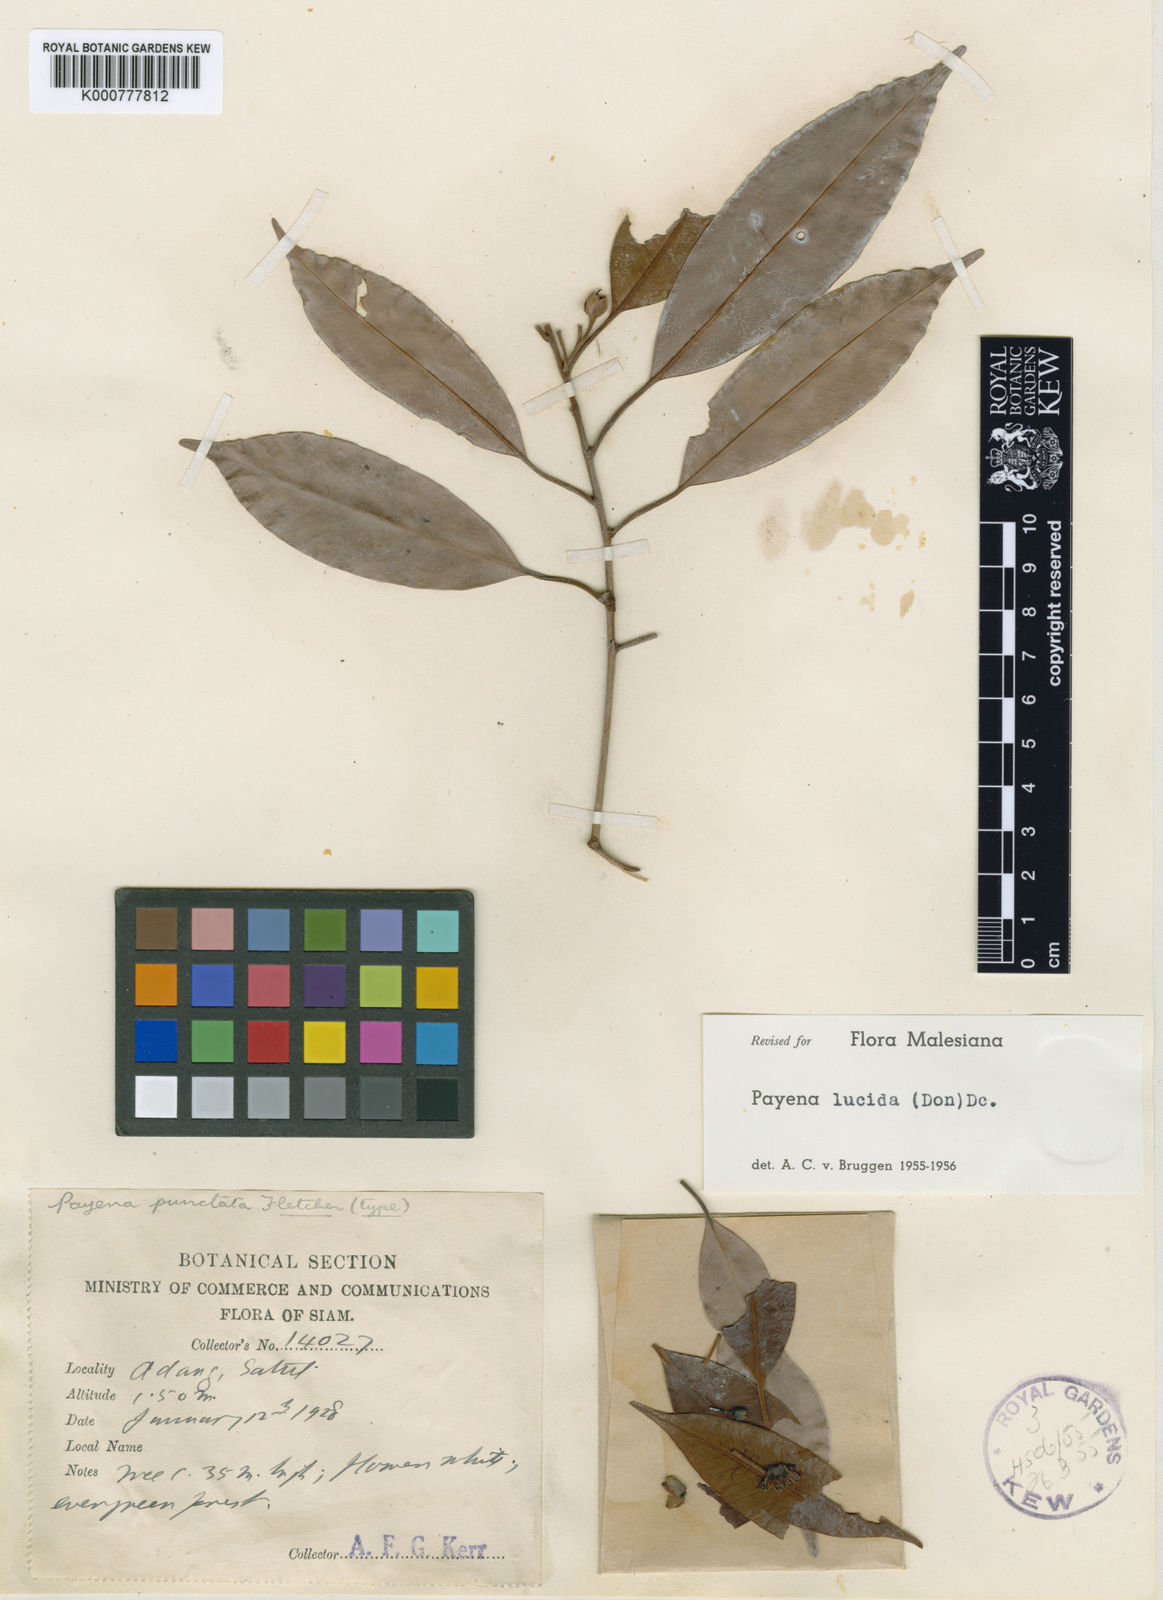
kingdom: Plantae
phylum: Tracheophyta
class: Magnoliopsida
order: Ericales
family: Sapotaceae
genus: Payena
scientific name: Payena lucida
